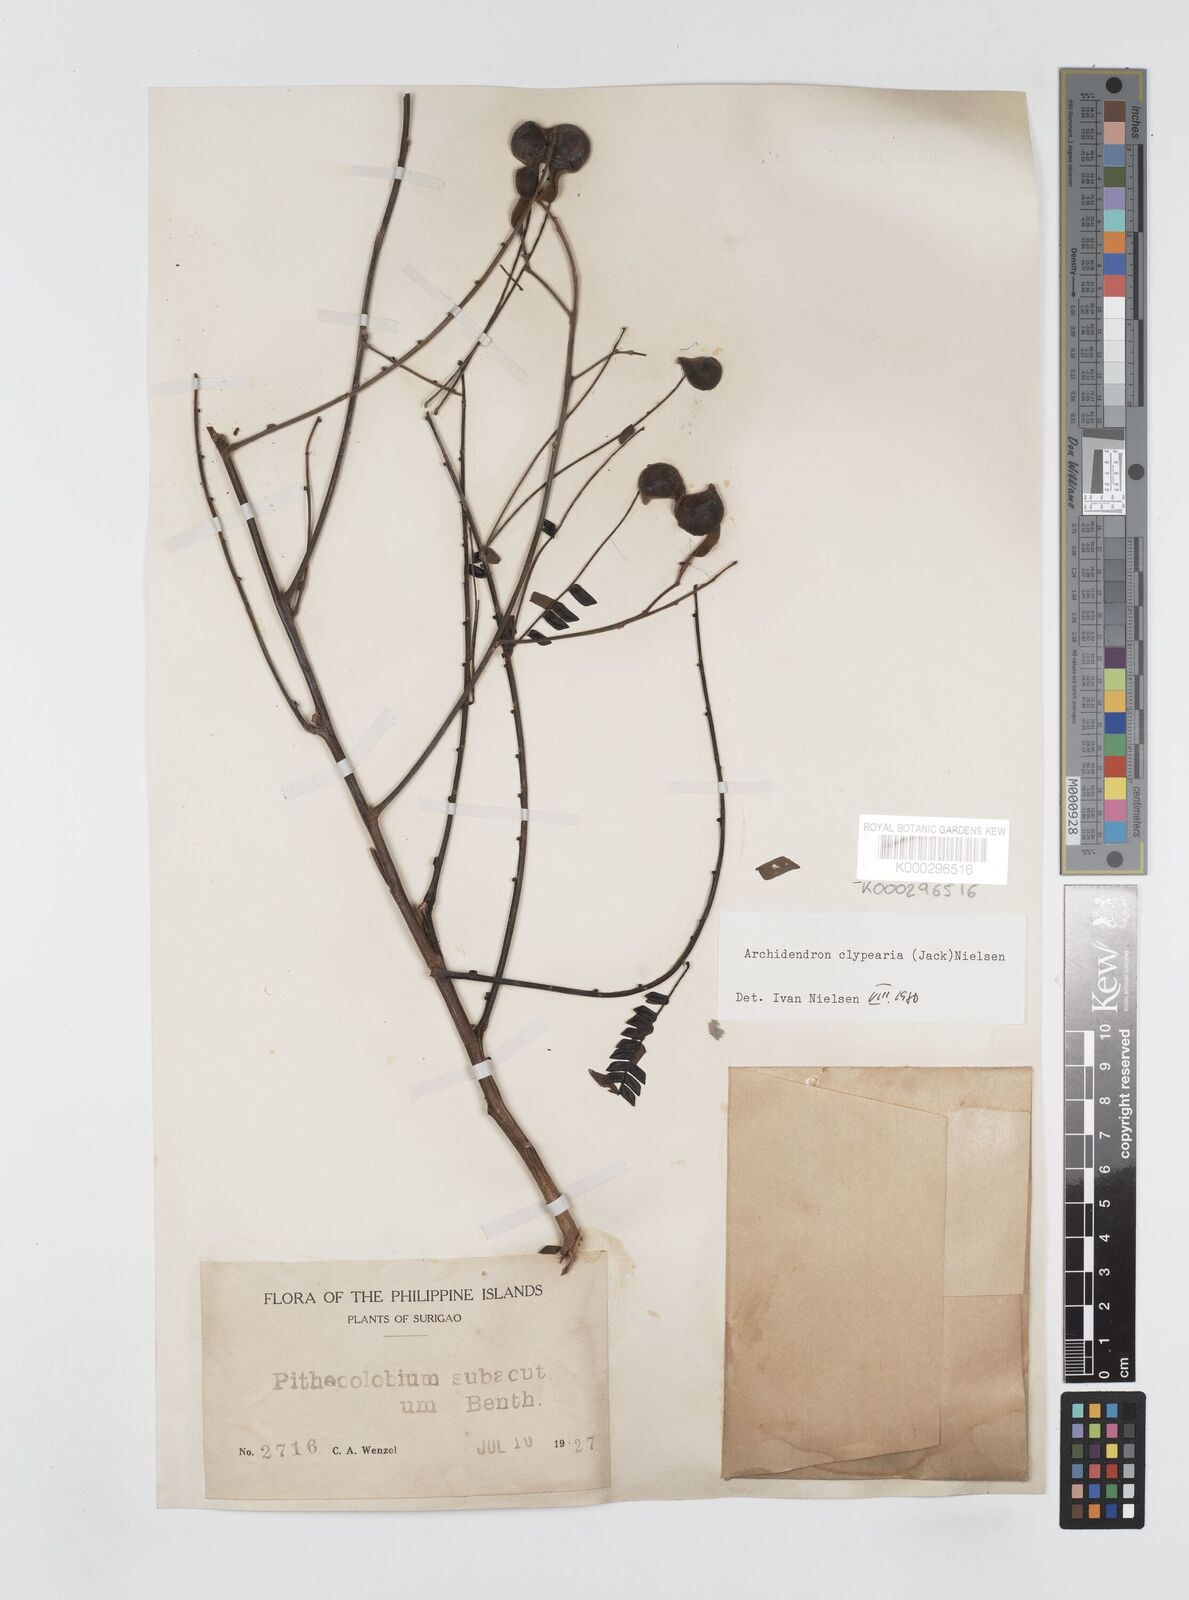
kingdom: Plantae
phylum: Tracheophyta
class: Magnoliopsida
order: Fabales
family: Fabaceae
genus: Archidendron
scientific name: Archidendron clypearia
